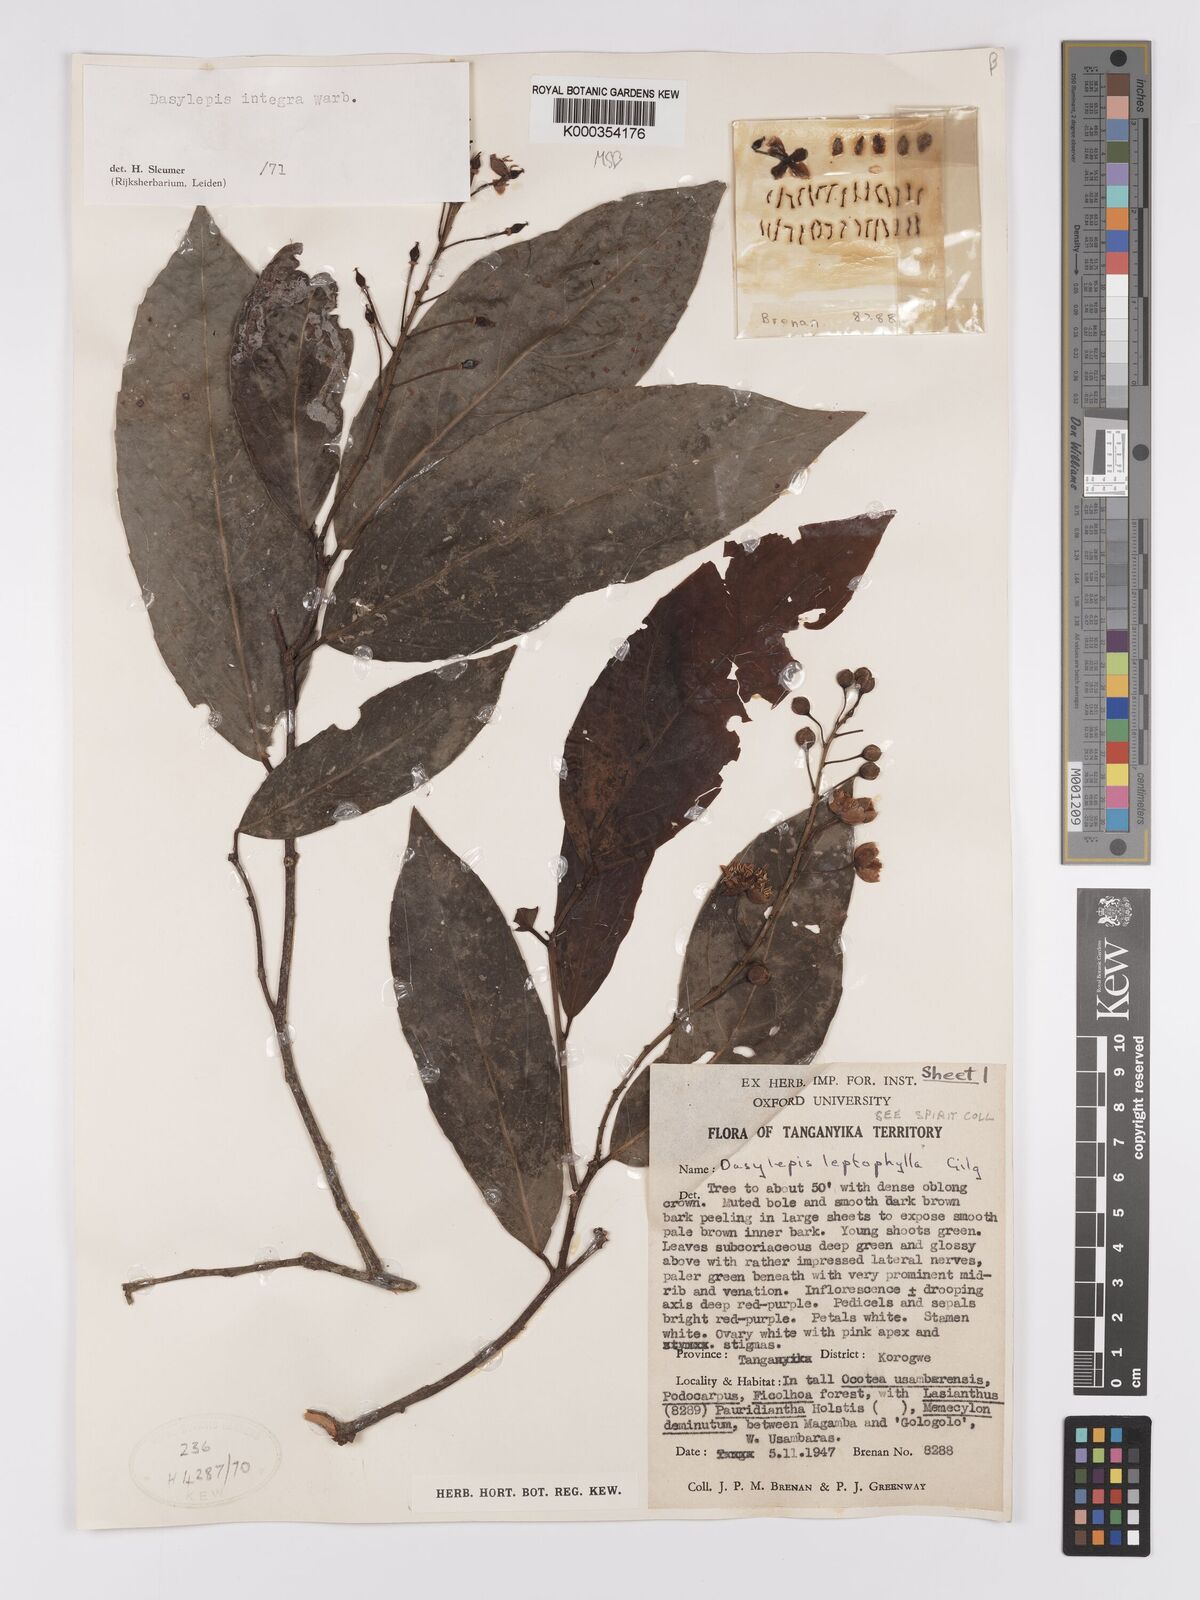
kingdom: Plantae
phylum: Tracheophyta
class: Magnoliopsida
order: Malpighiales
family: Achariaceae
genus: Dasylepis
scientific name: Dasylepis integra
